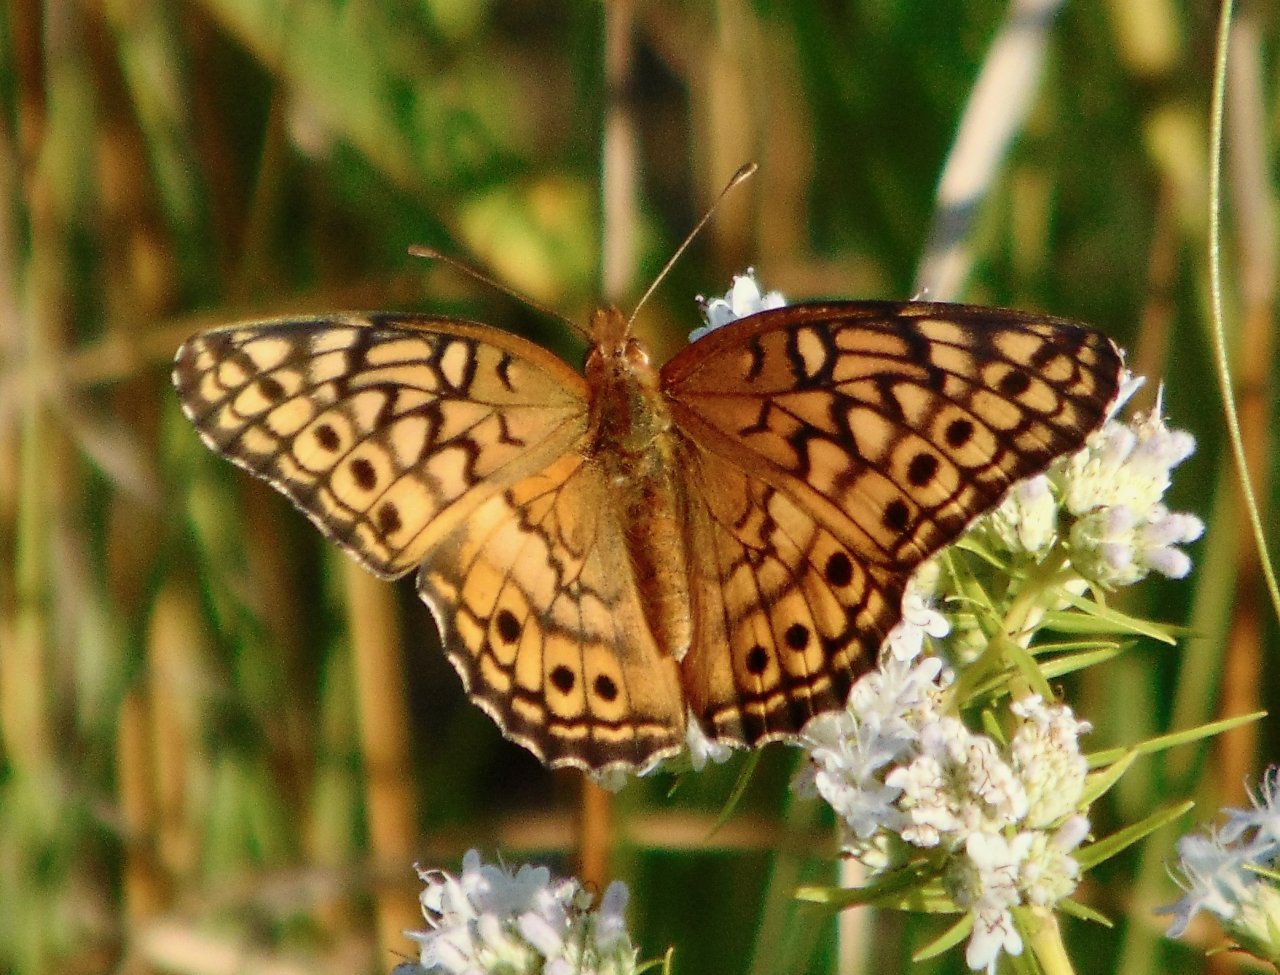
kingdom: Animalia
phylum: Arthropoda
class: Insecta
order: Lepidoptera
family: Nymphalidae
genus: Euptoieta
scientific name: Euptoieta claudia
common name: Variegated Fritillary
